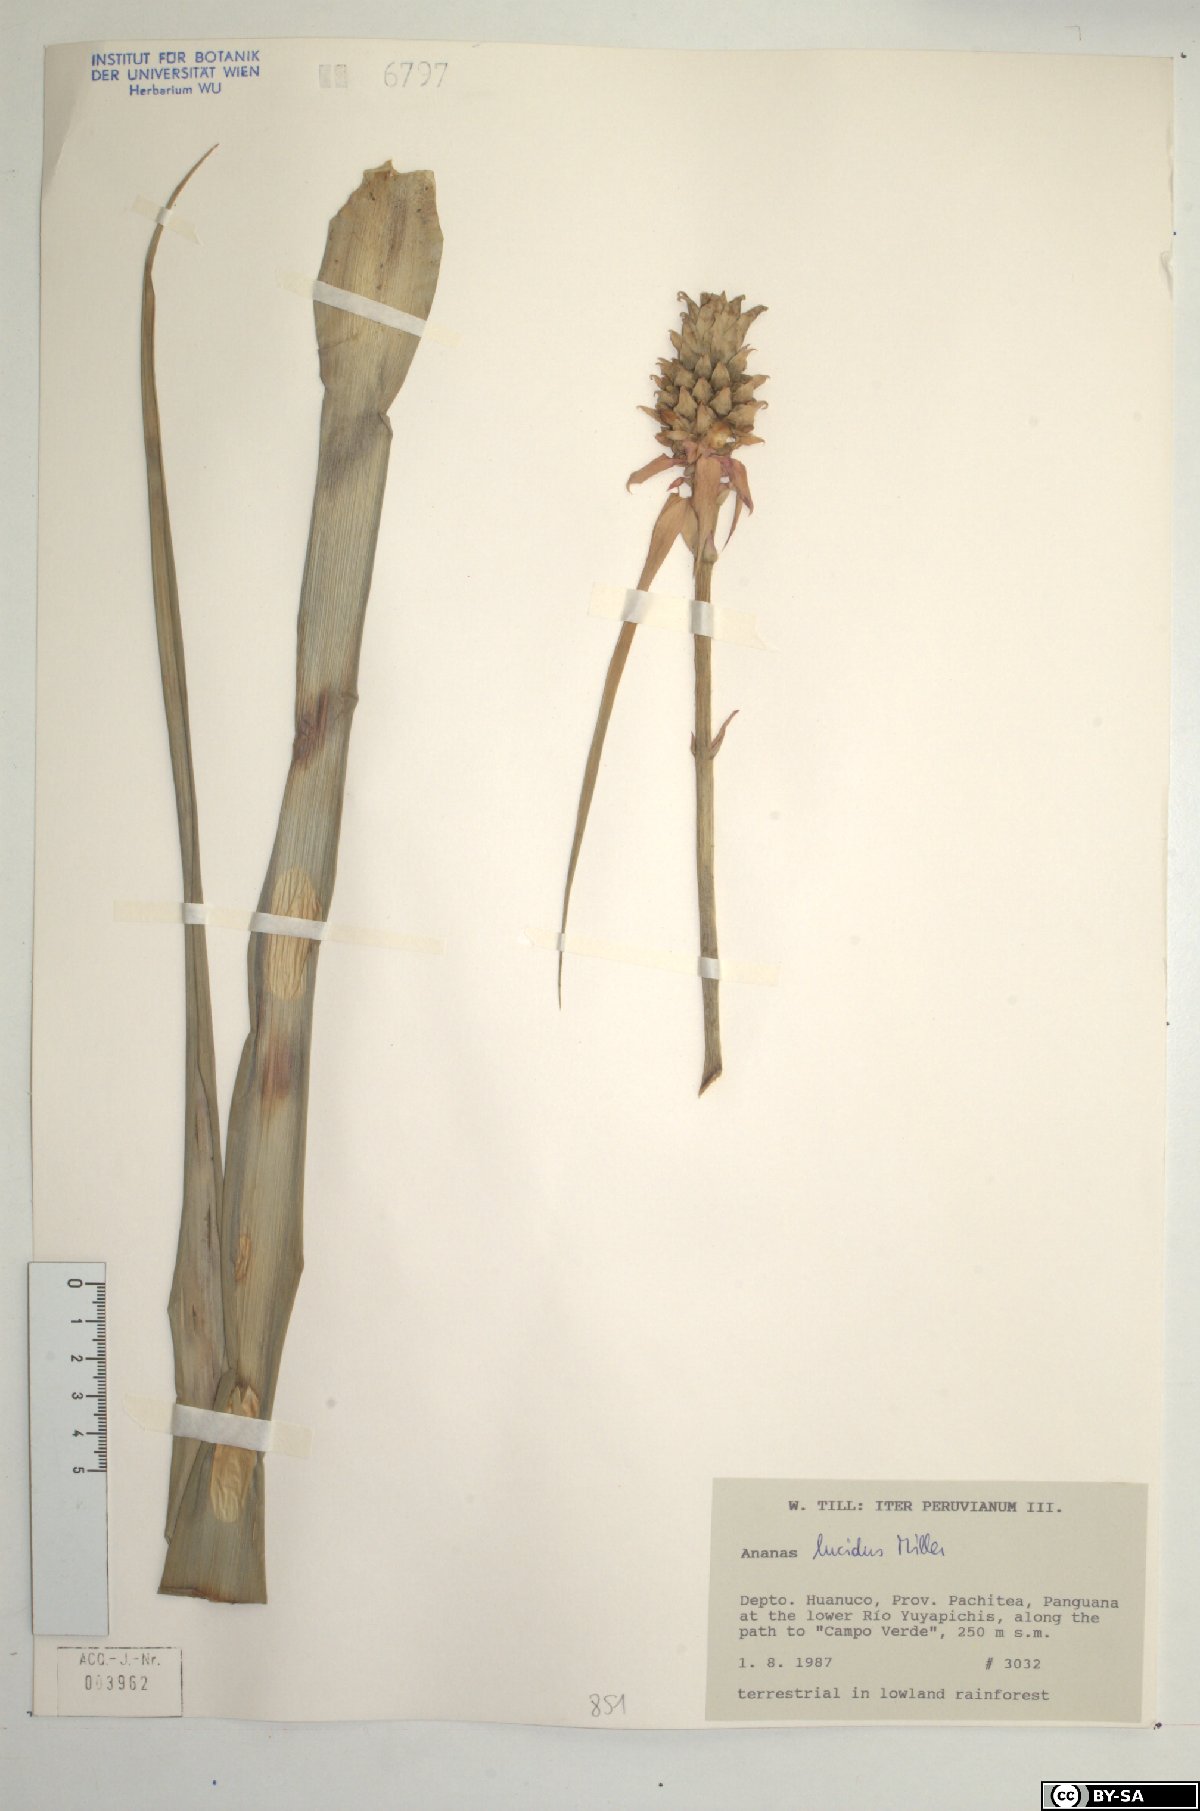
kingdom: Plantae
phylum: Tracheophyta
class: Liliopsida
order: Poales
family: Bromeliaceae
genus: Ananas
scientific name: Ananas comosus
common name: Pineapple
